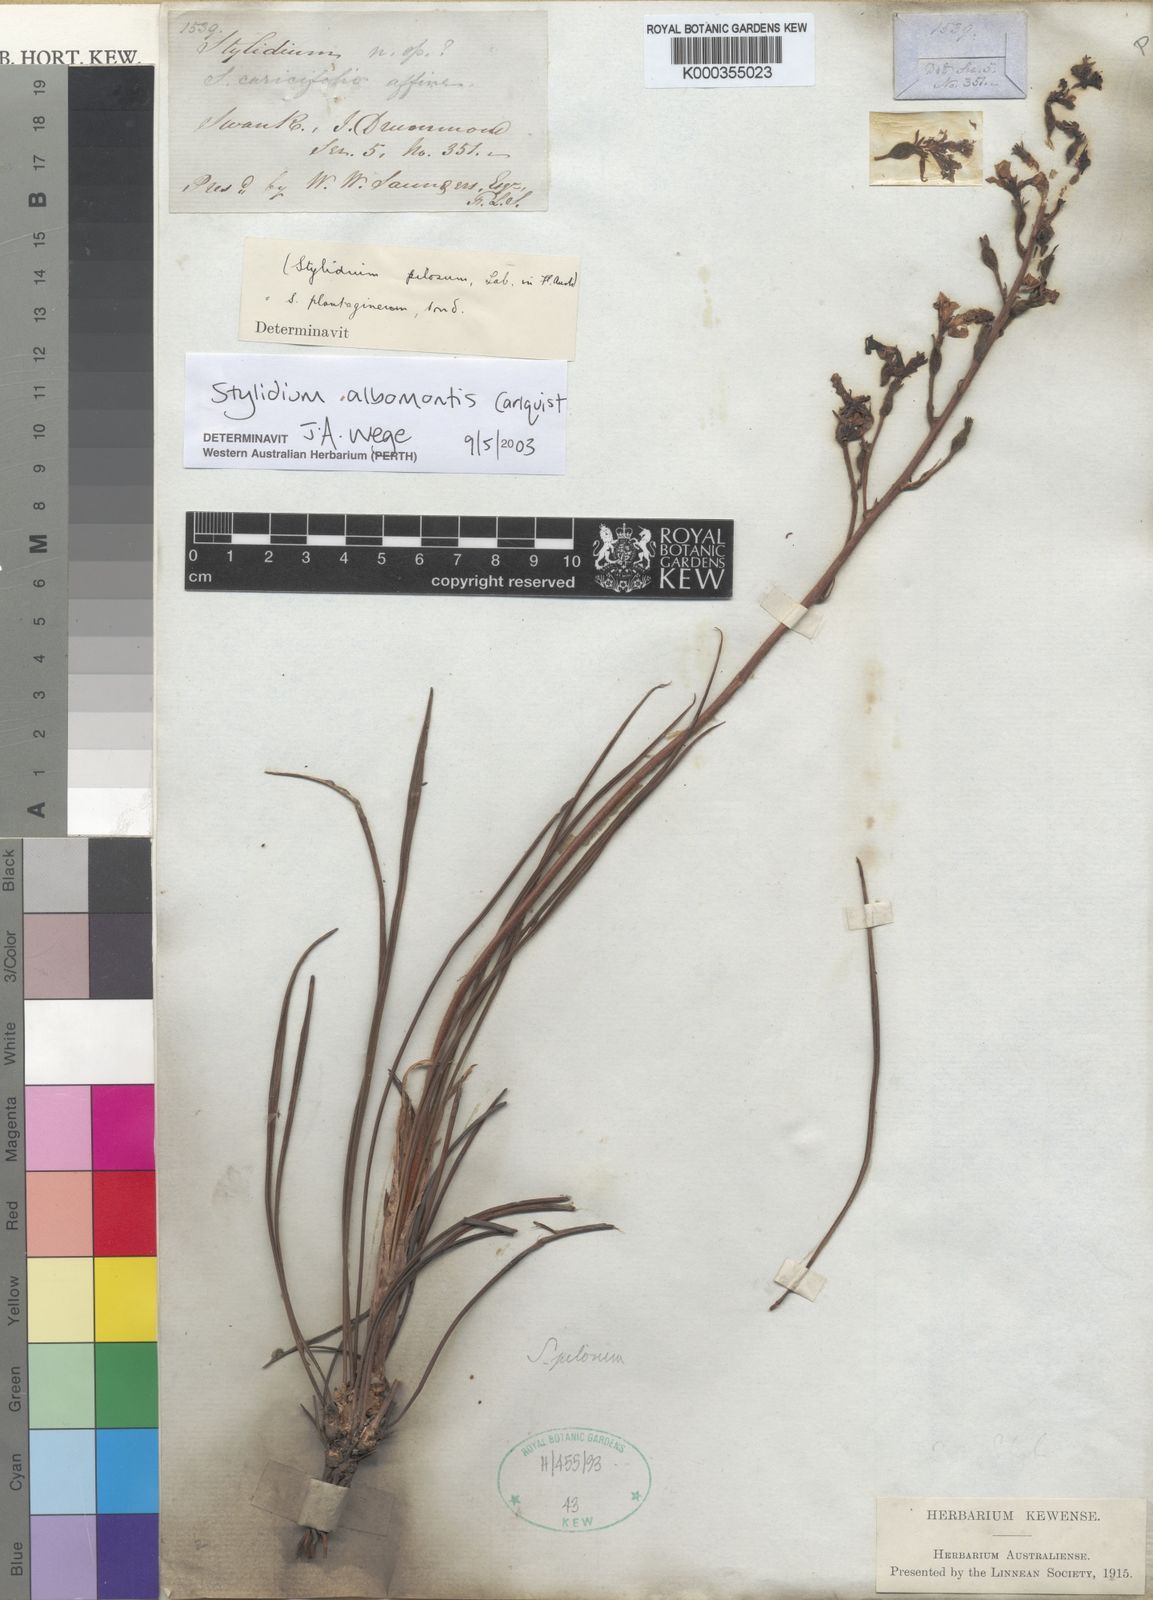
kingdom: Plantae
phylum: Tracheophyta
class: Magnoliopsida
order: Asterales
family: Stylidiaceae
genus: Stylidium
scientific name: Stylidium
